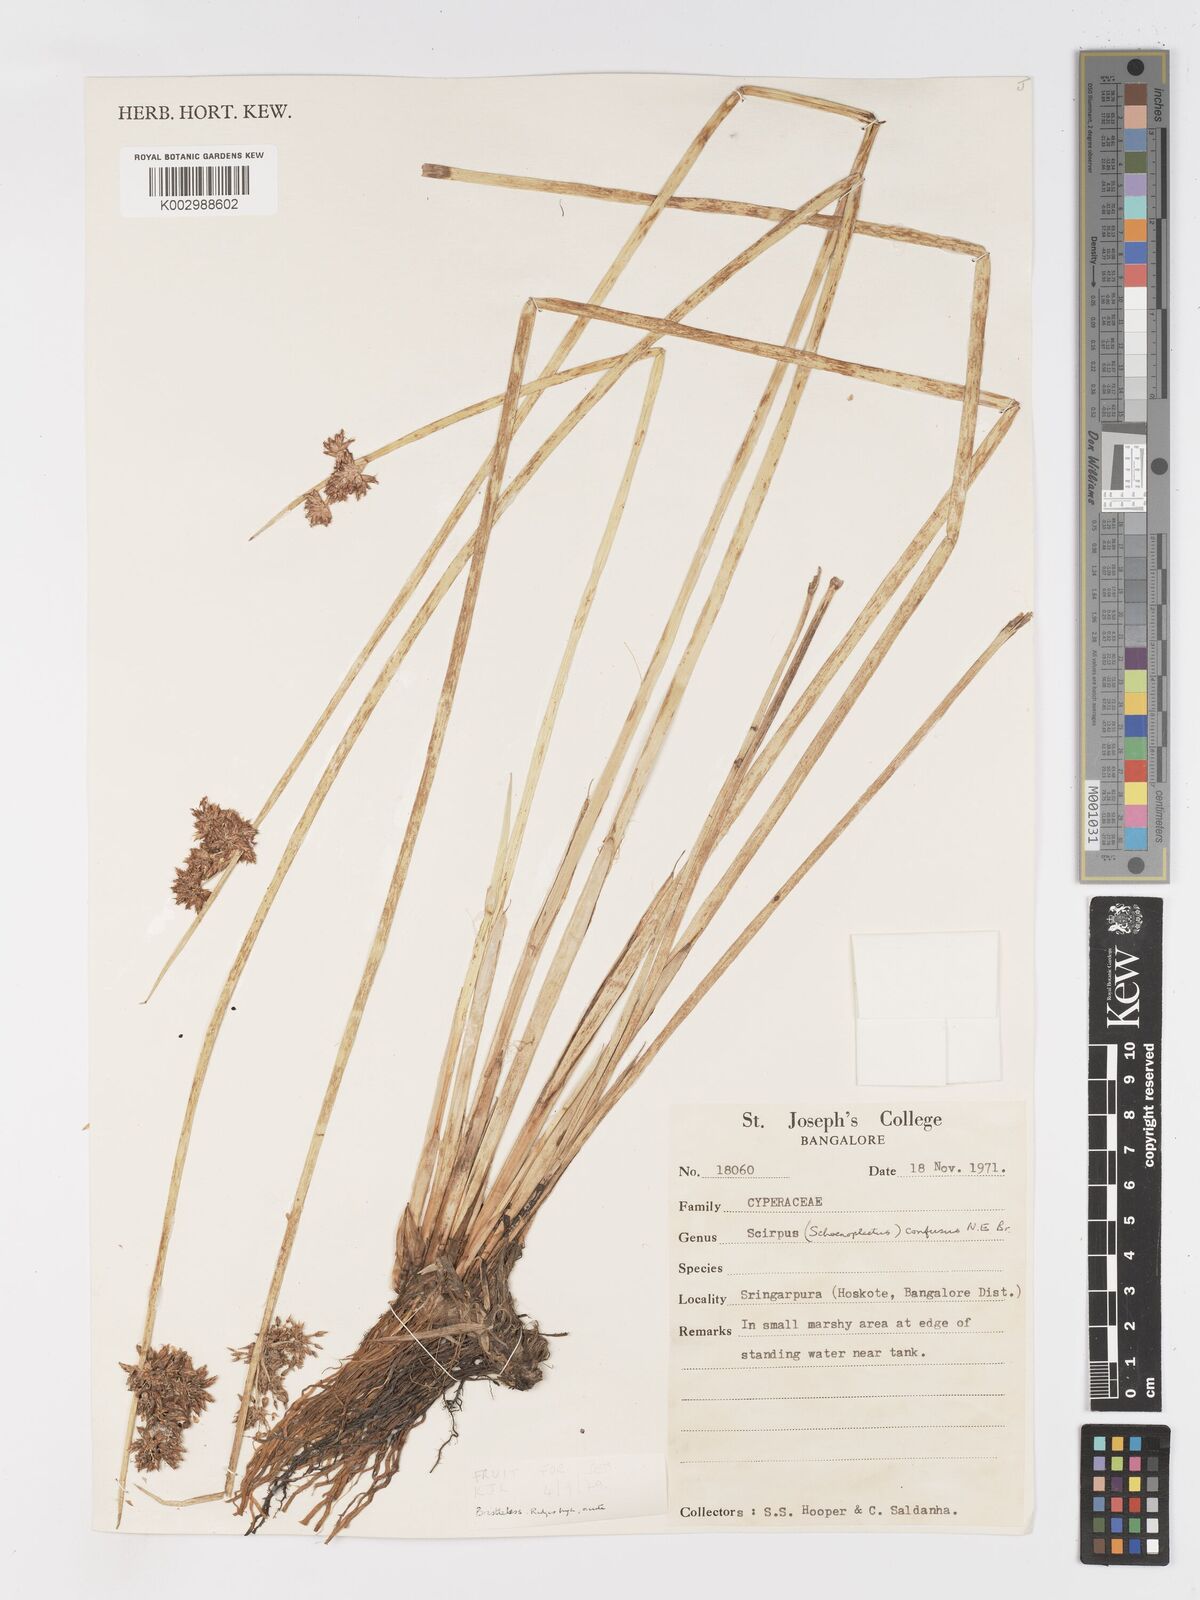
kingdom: Plantae
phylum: Tracheophyta
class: Liliopsida
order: Poales
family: Cyperaceae
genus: Schoenoplectiella
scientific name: Schoenoplectiella confusa
